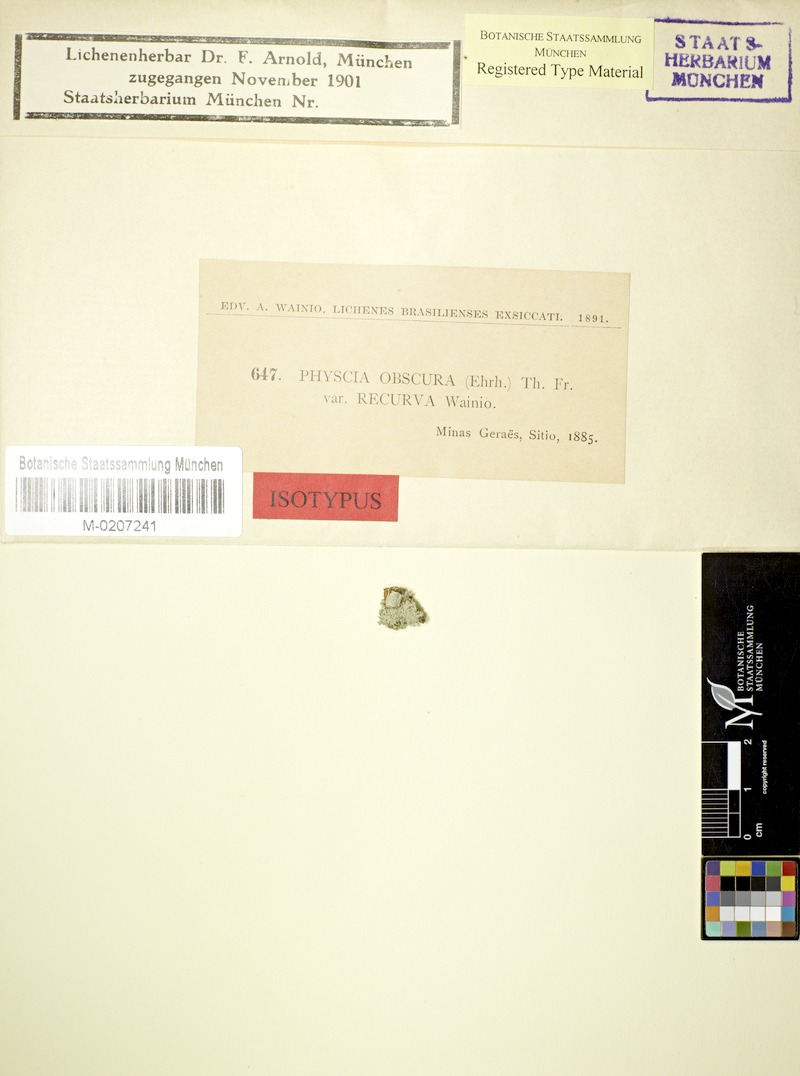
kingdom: Fungi
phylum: Ascomycota
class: Lecanoromycetes
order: Caliciales
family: Physciaceae
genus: Phaeophyscia
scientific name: Phaeophyscia orbicularis
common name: Mealy shadow lichen
